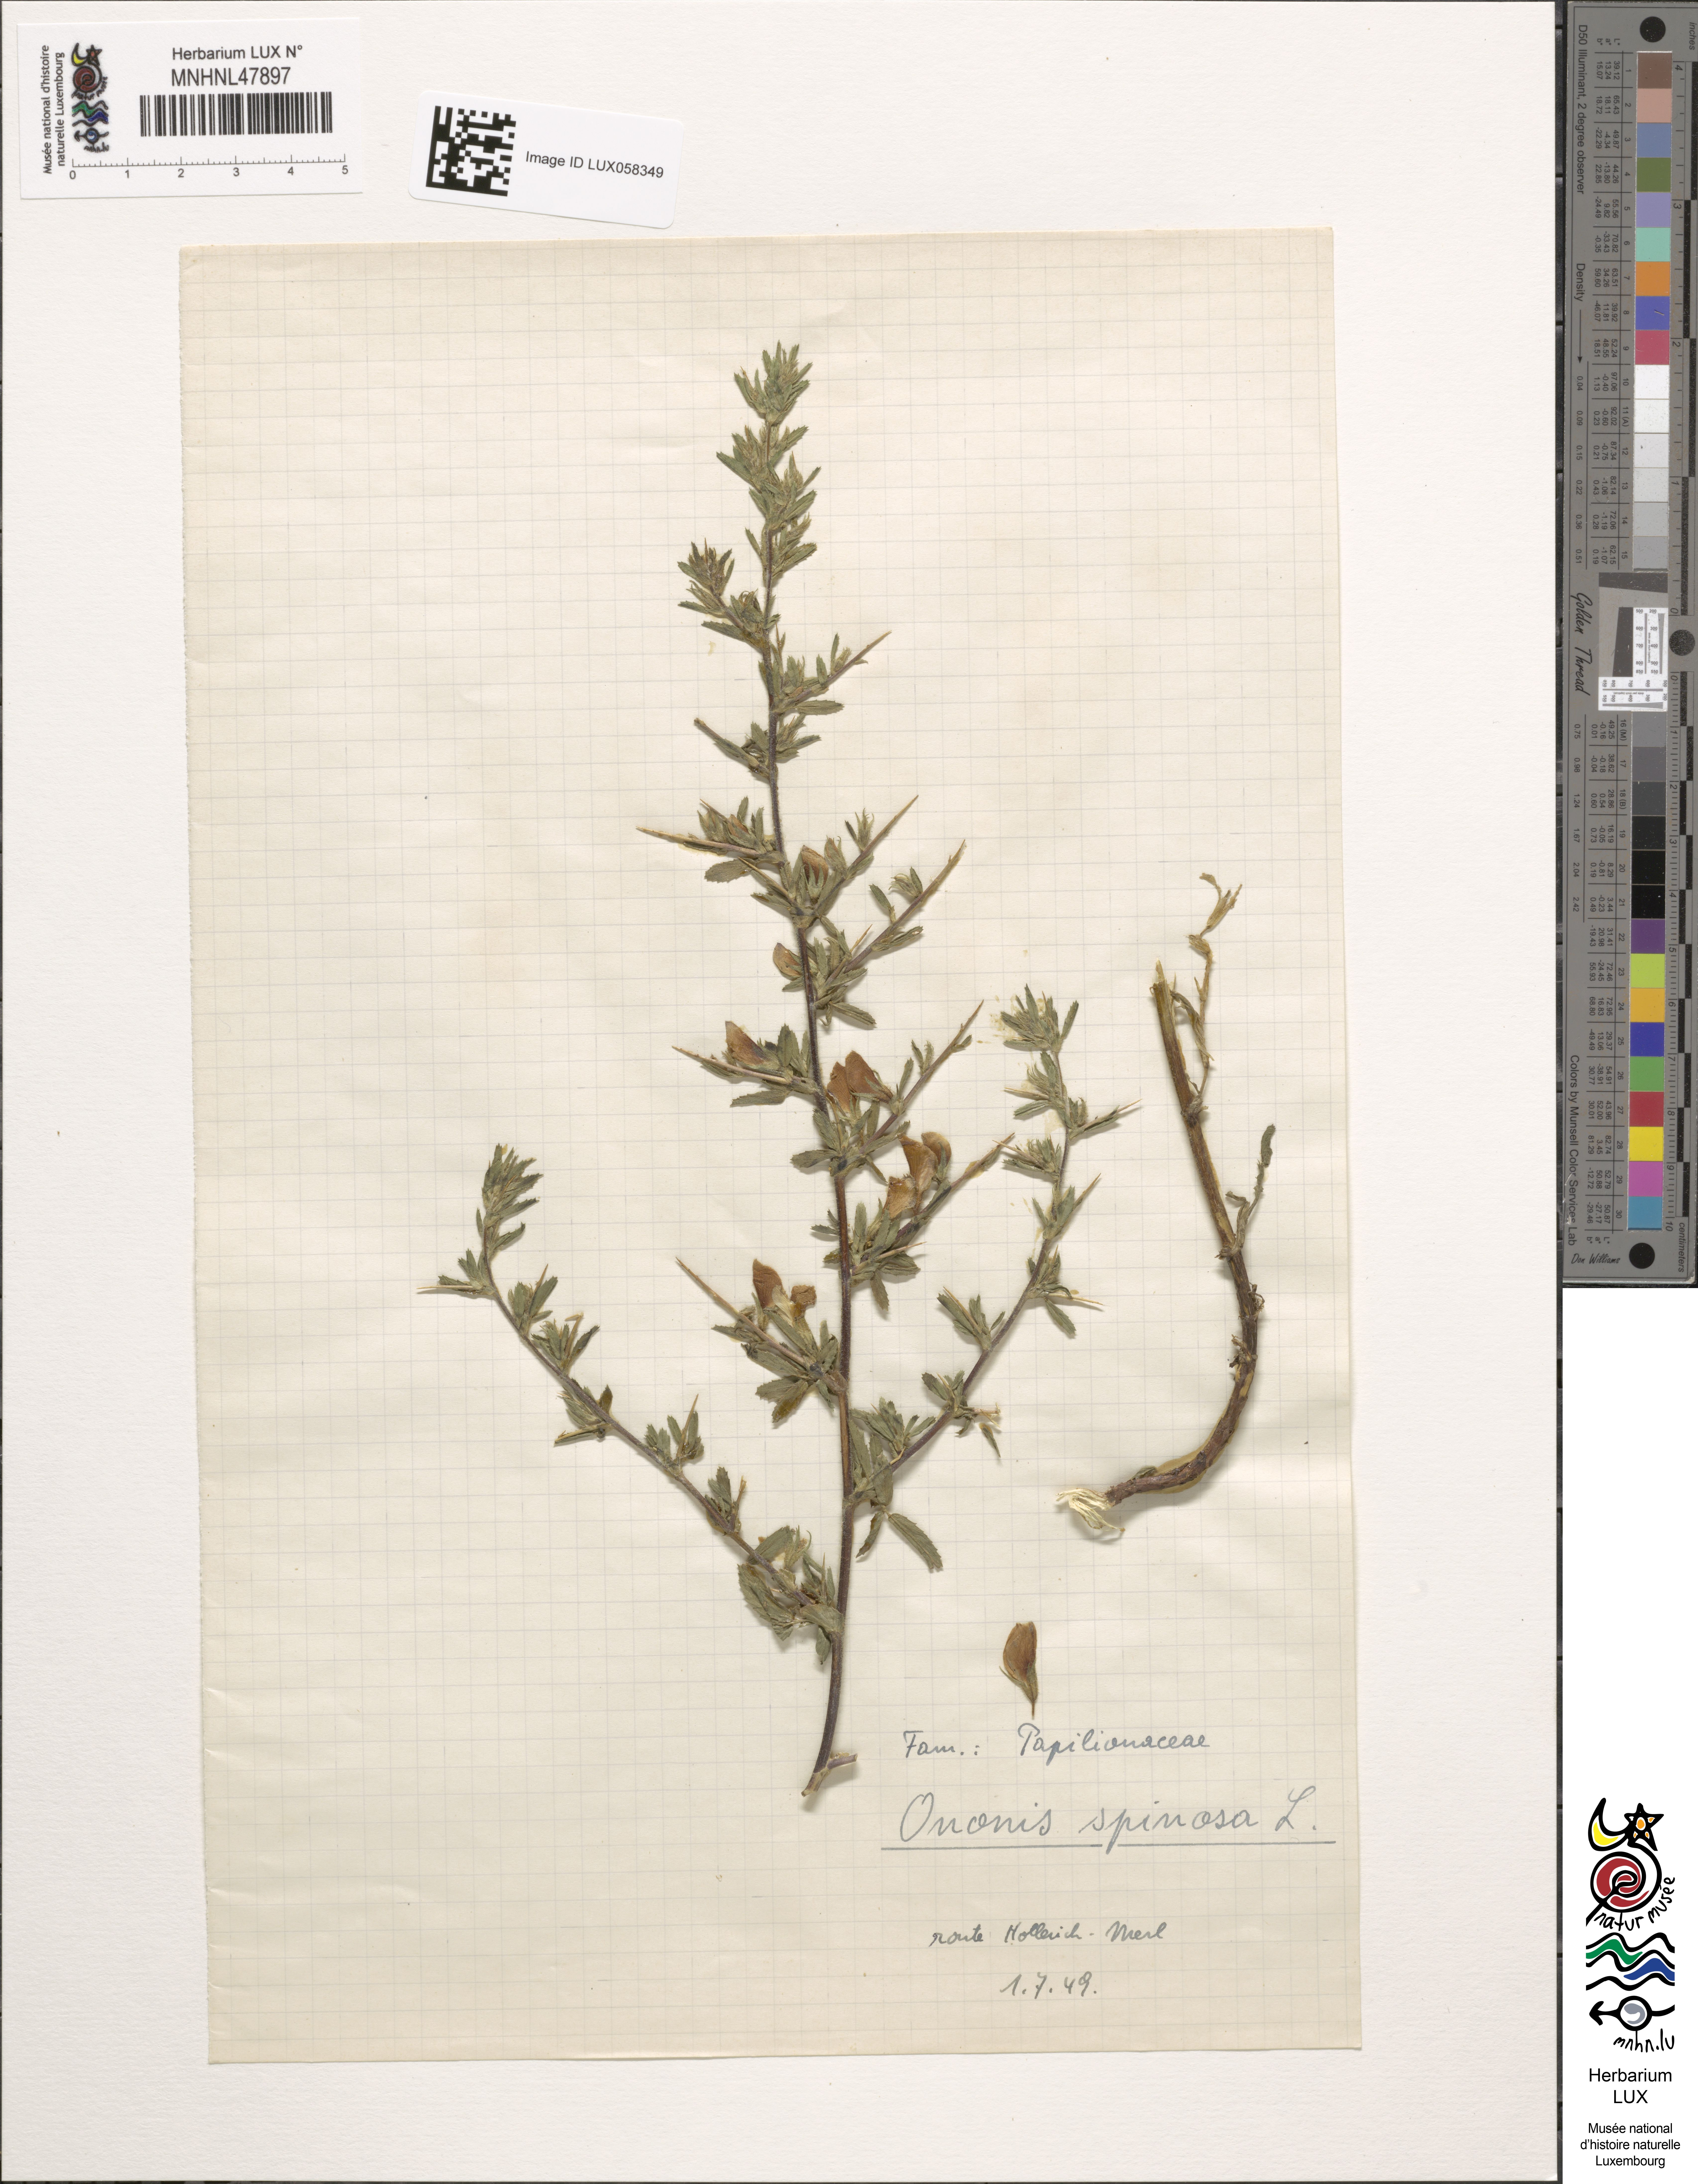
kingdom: Plantae
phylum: Tracheophyta
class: Magnoliopsida
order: Fabales
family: Fabaceae
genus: Ononis
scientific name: Ononis spinosa
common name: Spiny restharrow
